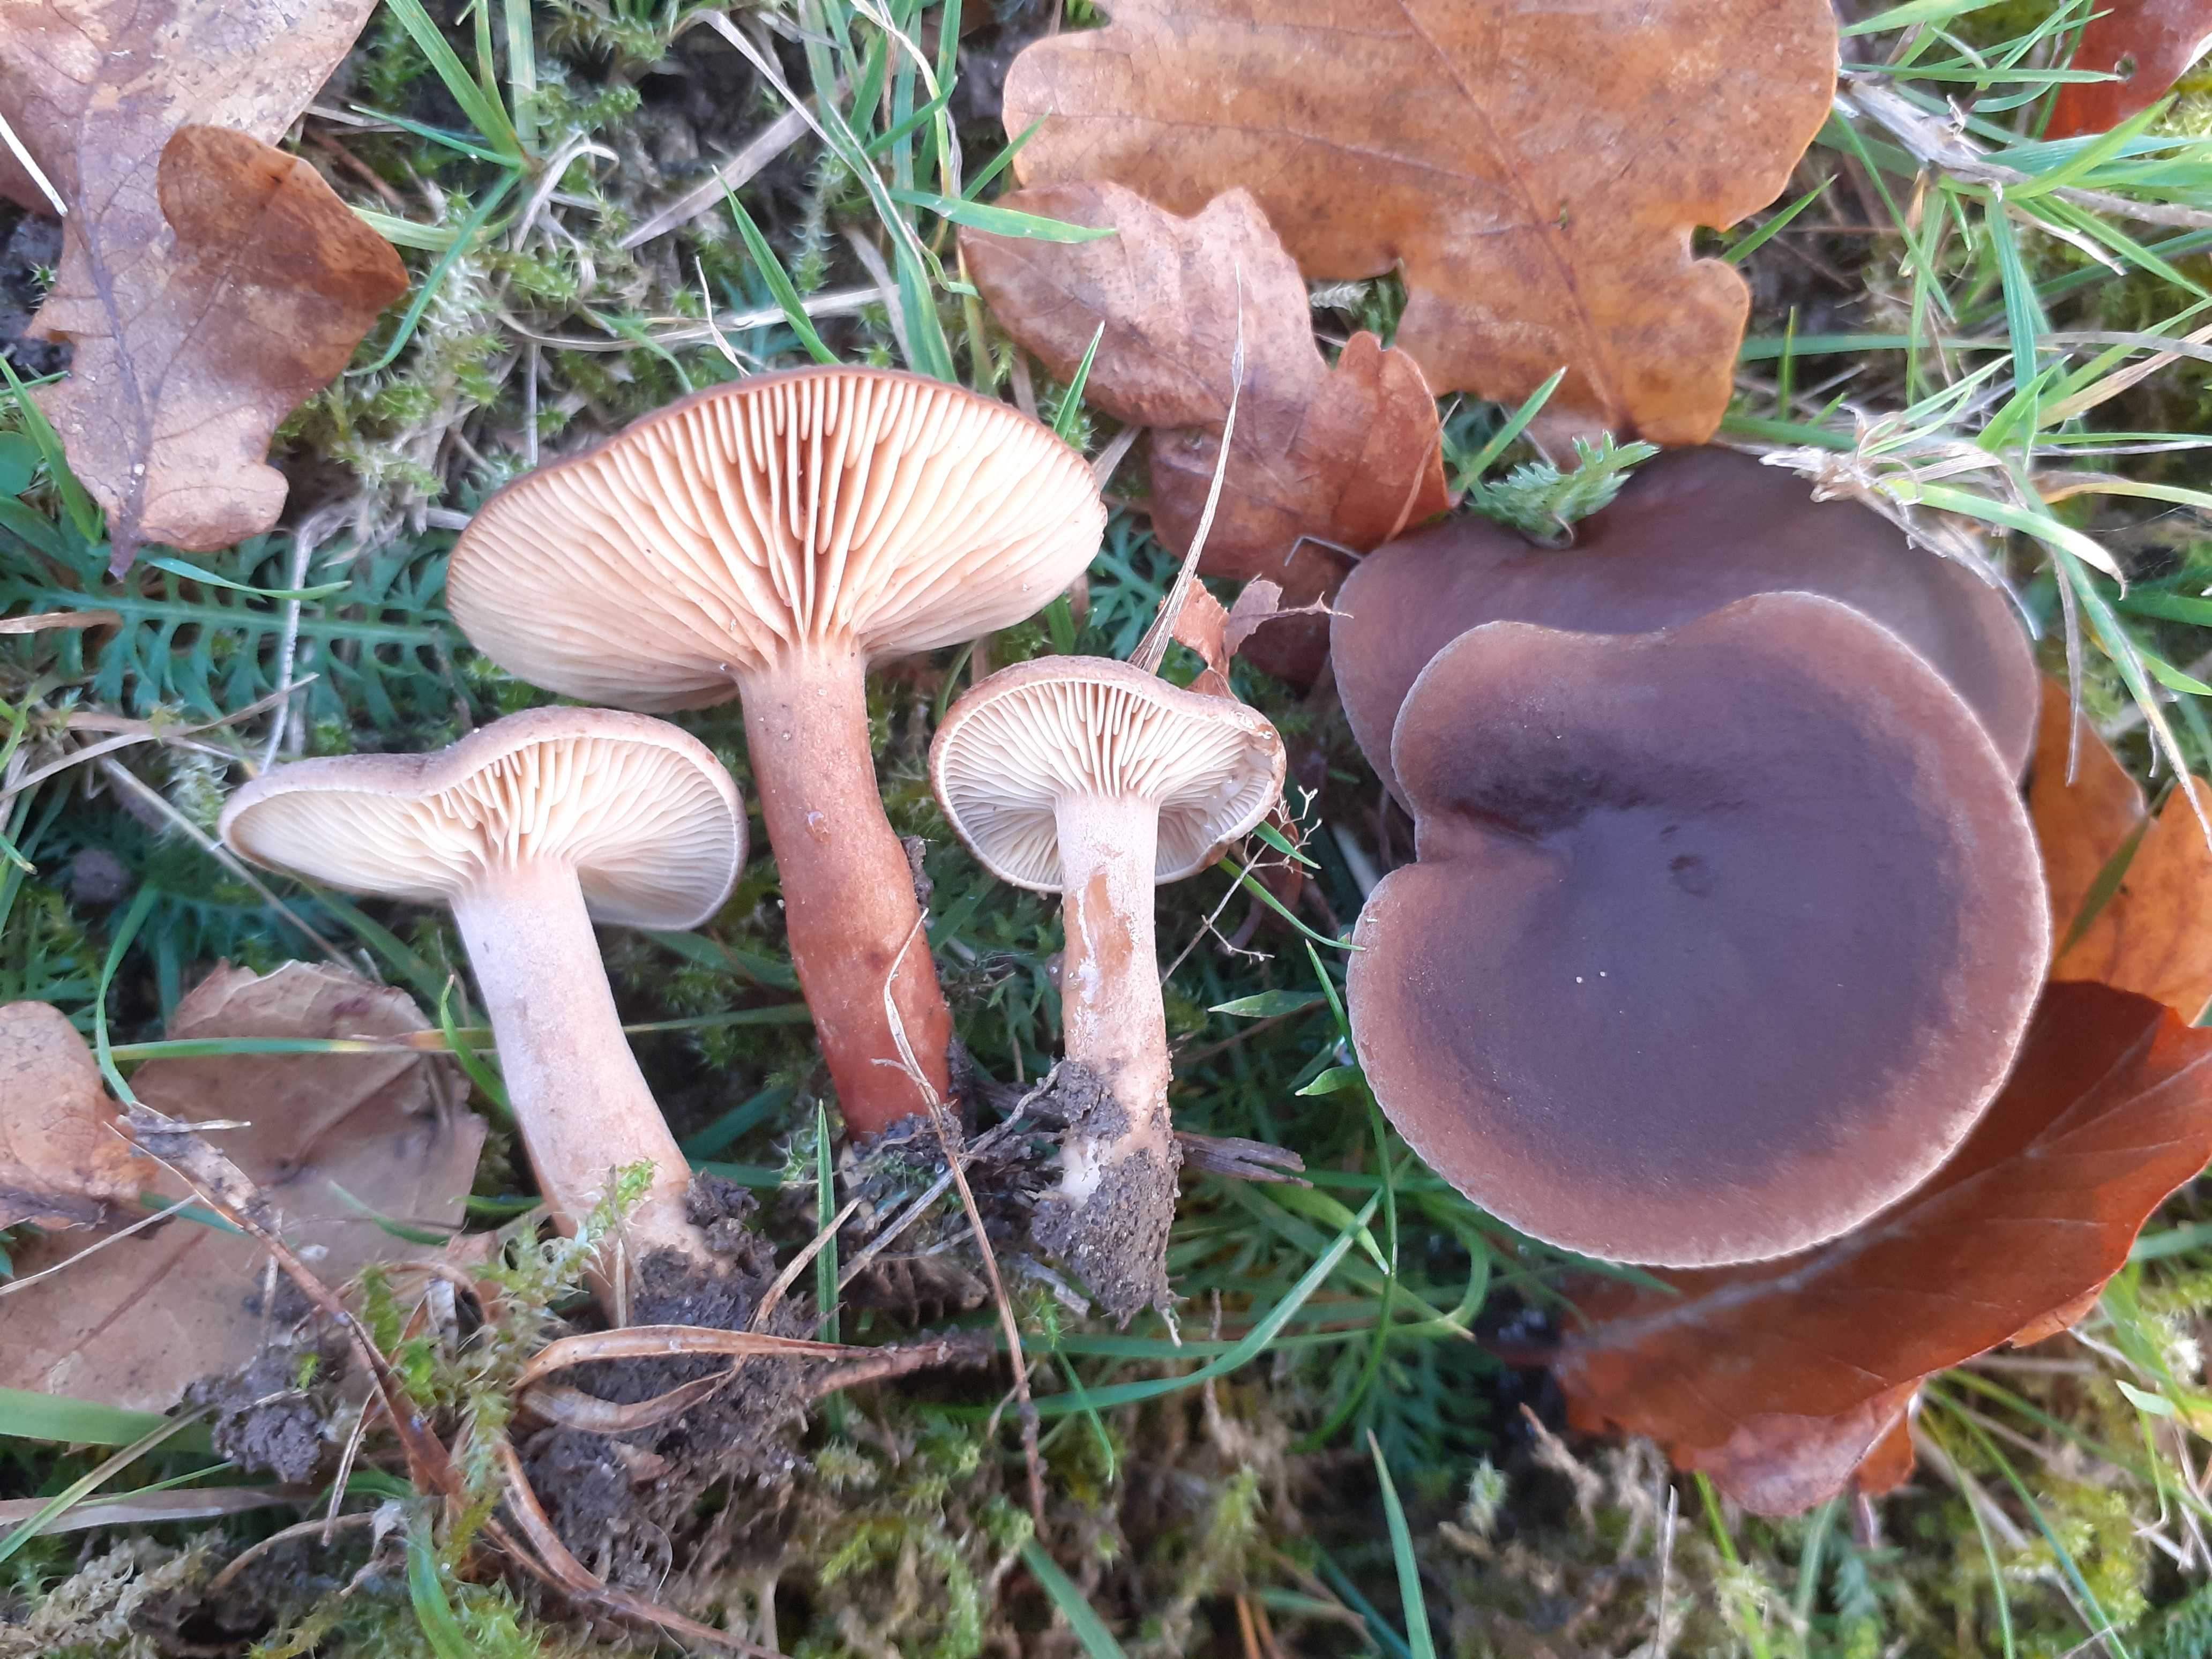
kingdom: Fungi
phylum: Basidiomycota
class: Agaricomycetes
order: Russulales
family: Russulaceae
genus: Lactarius
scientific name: Lactarius serifluus
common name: tæge-mælkehat
